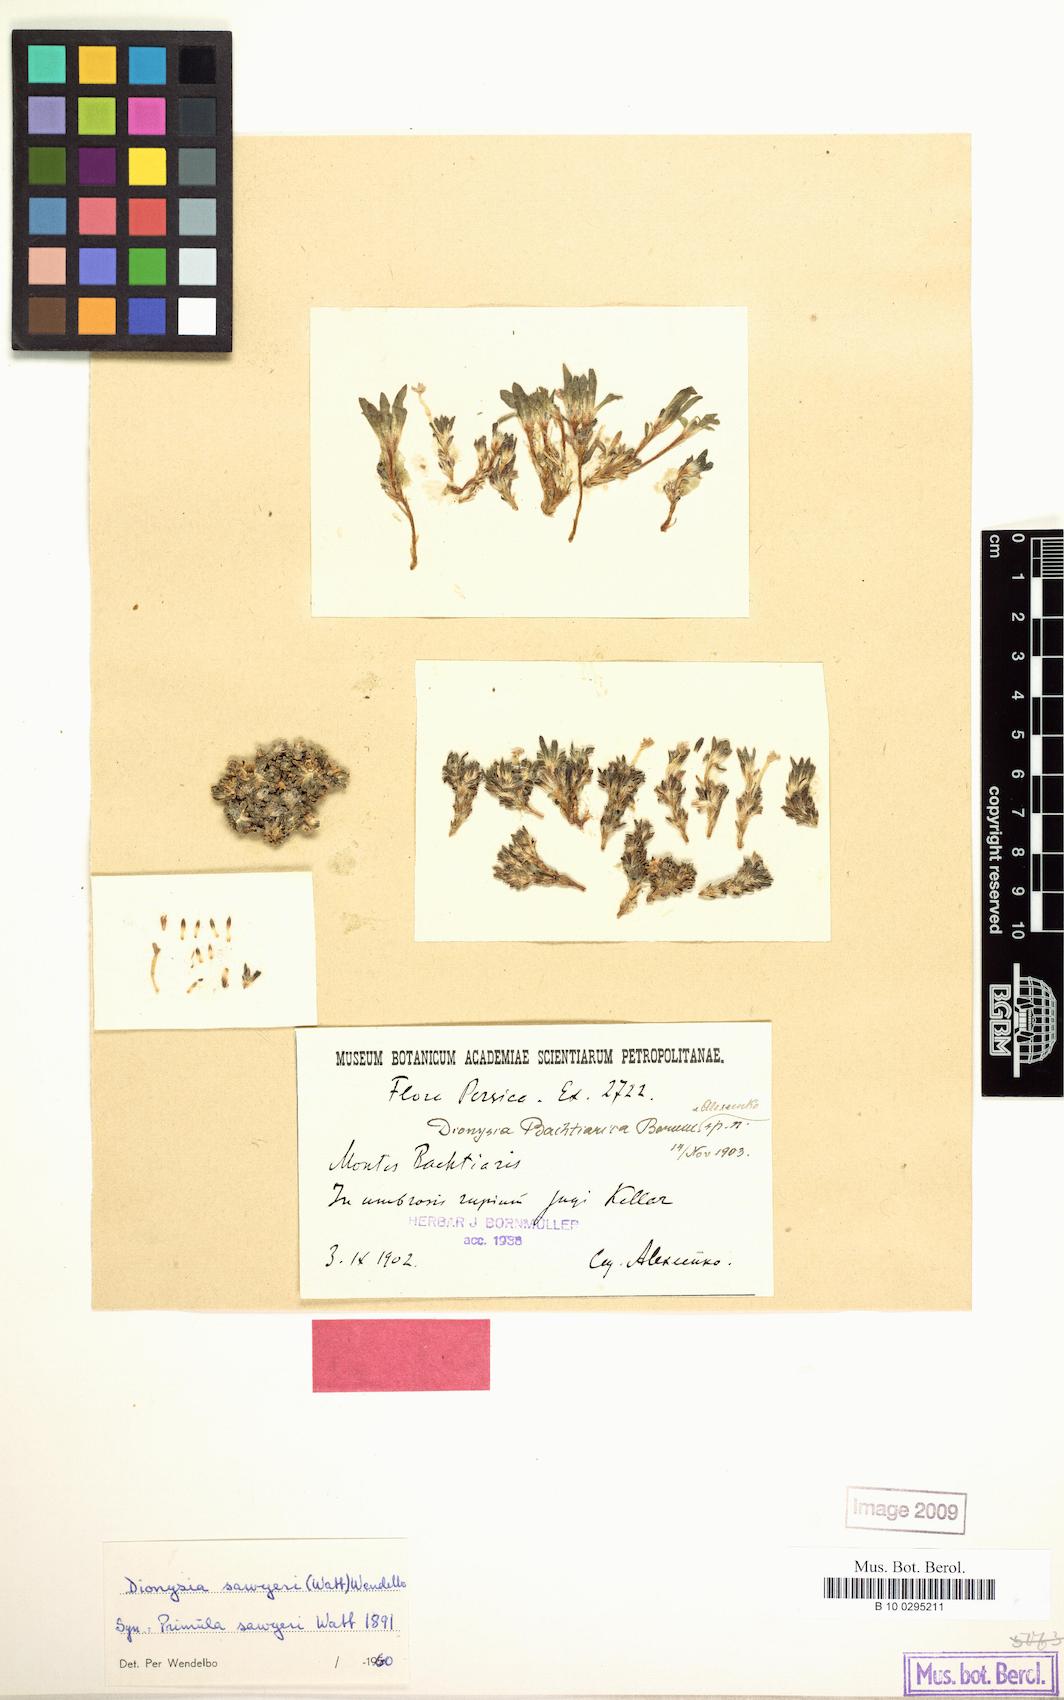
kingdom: Plantae
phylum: Tracheophyta
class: Magnoliopsida
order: Ericales
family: Primulaceae
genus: Dionysia
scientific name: Dionysia archibaldii
